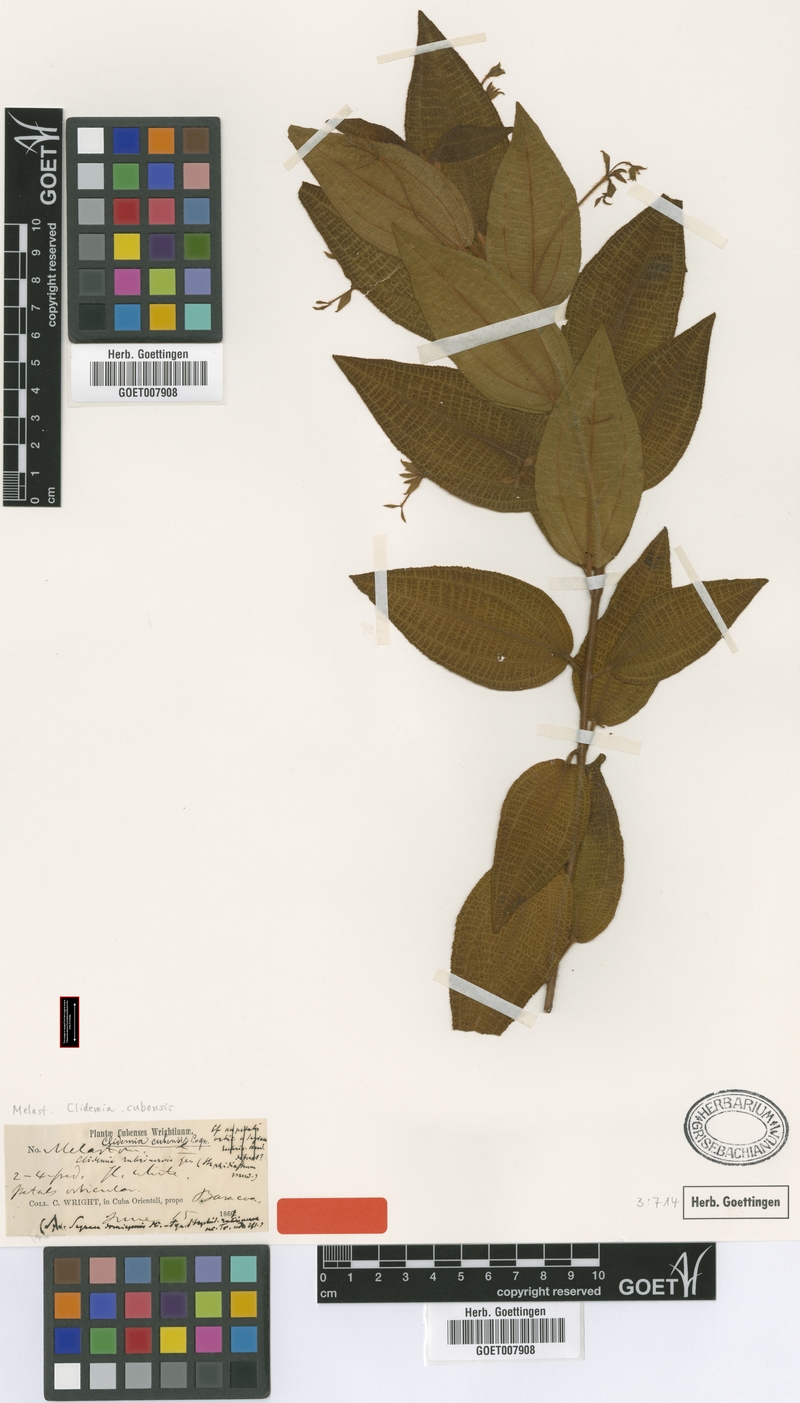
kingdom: Plantae
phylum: Tracheophyta
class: Magnoliopsida
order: Myrtales
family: Melastomataceae
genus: Miconia
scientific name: Miconia rubrinervis
